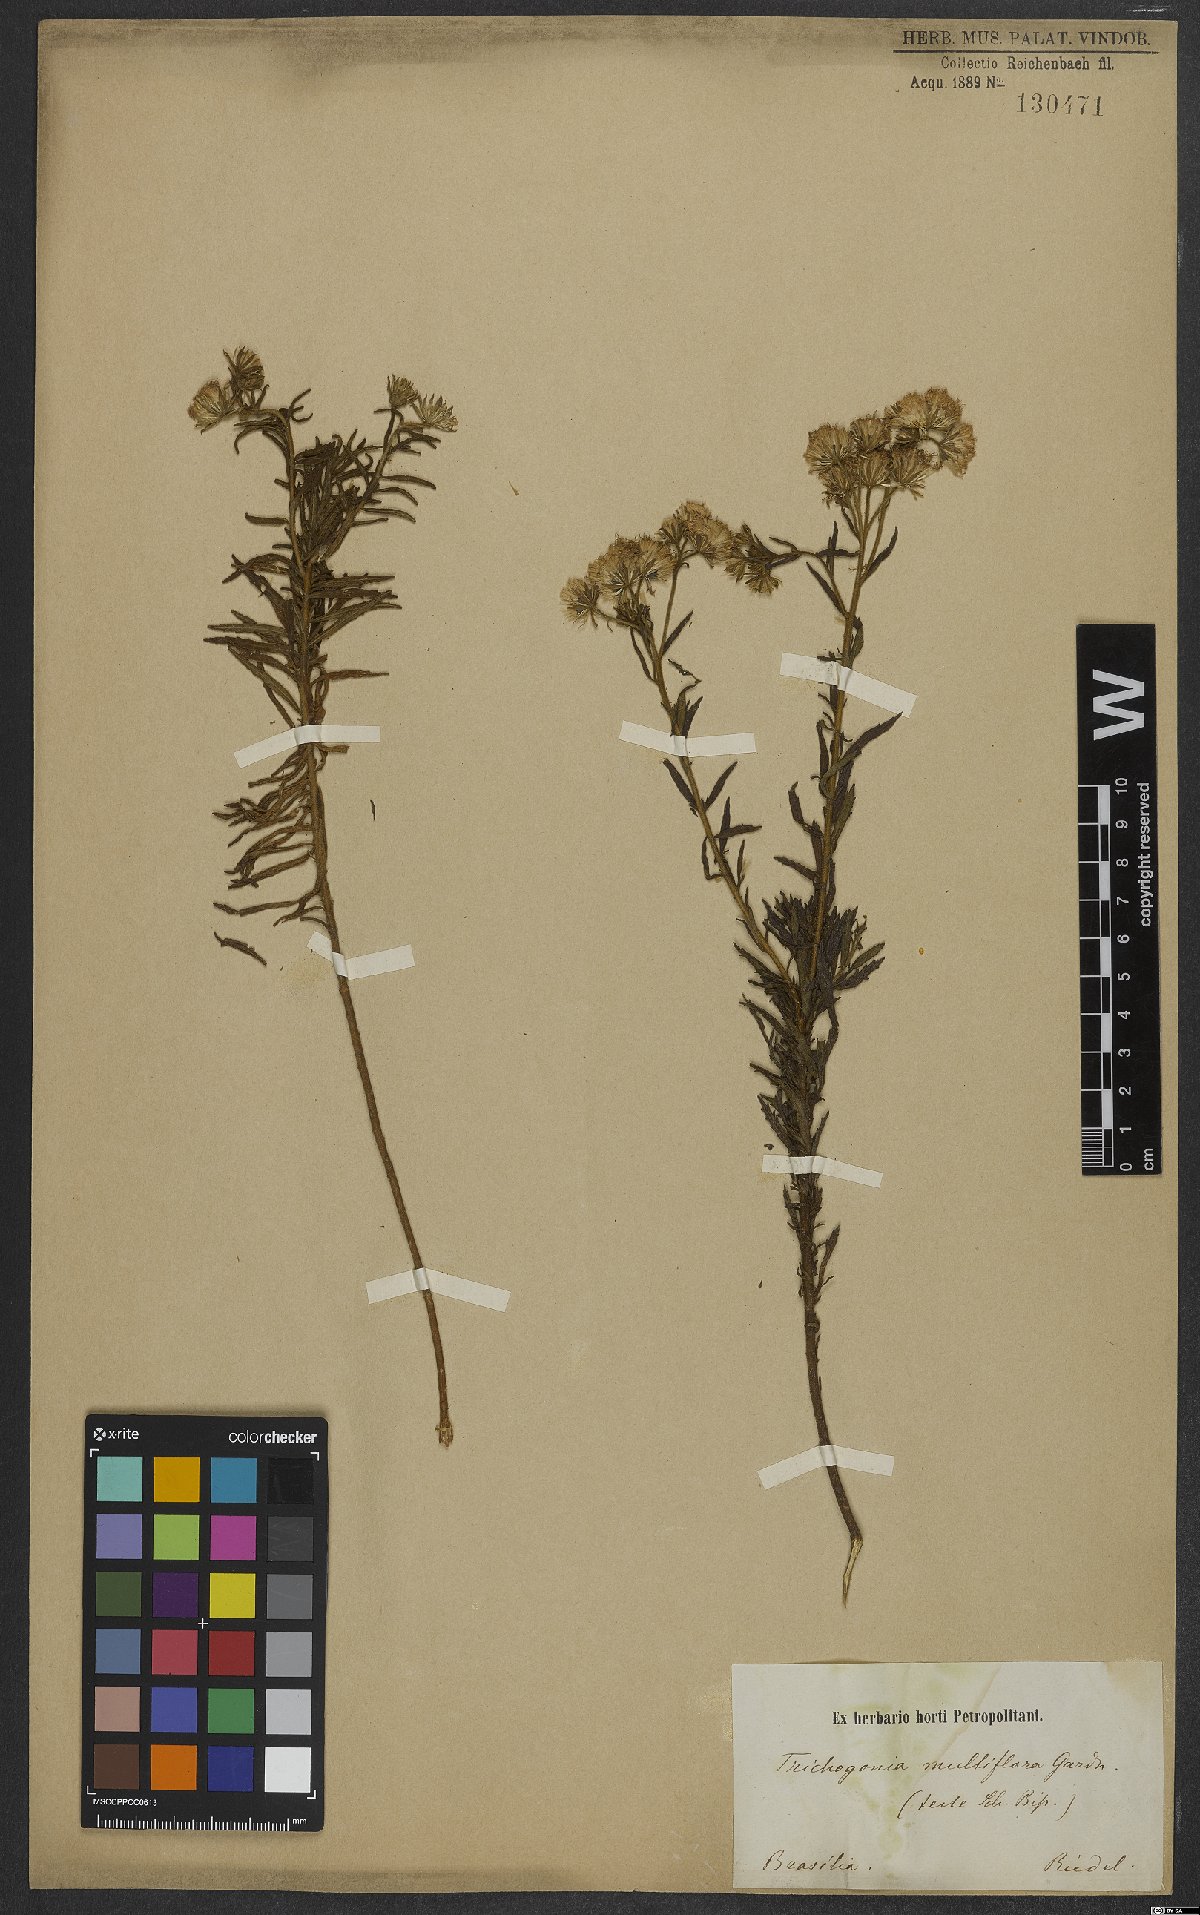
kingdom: Plantae
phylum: Tracheophyta
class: Magnoliopsida
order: Asterales
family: Asteraceae
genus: Trichogonia
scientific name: Trichogonia villosa
